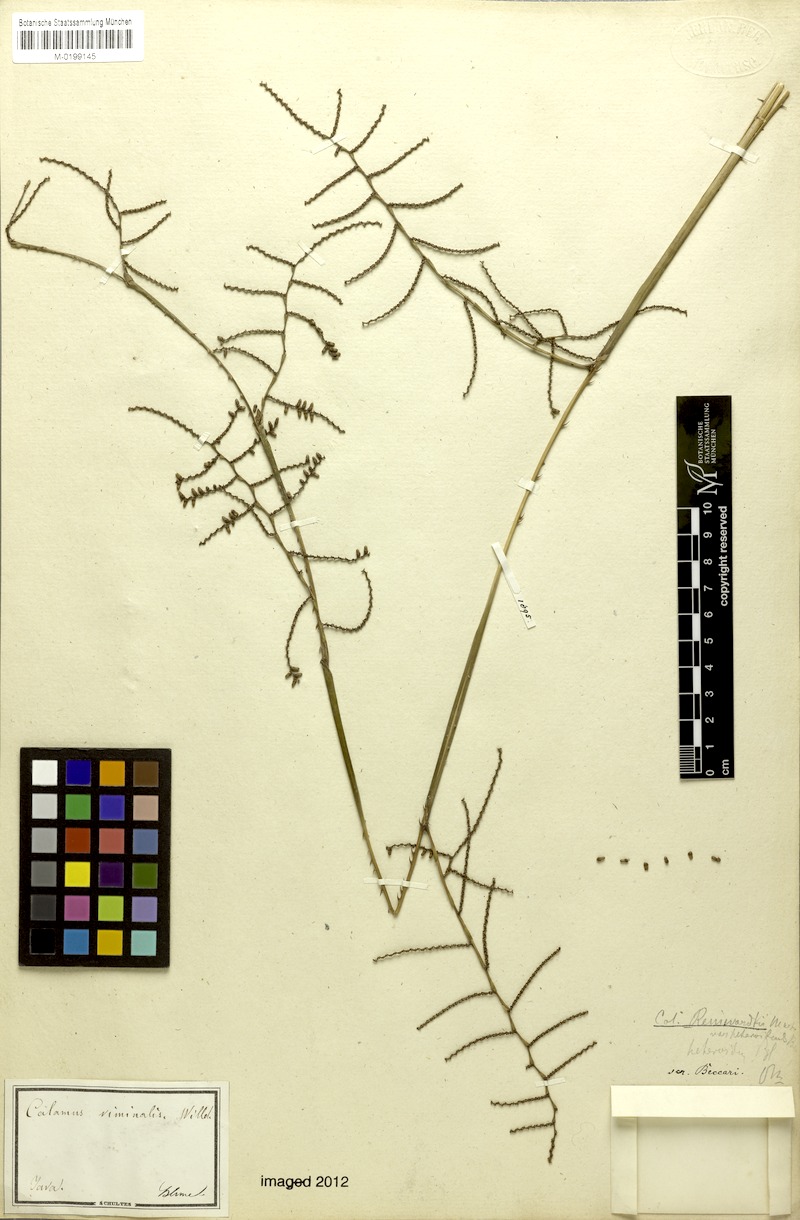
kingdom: Plantae
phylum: Tracheophyta
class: Liliopsida
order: Arecales
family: Arecaceae
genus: Calamus
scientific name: Calamus reinwardtii
